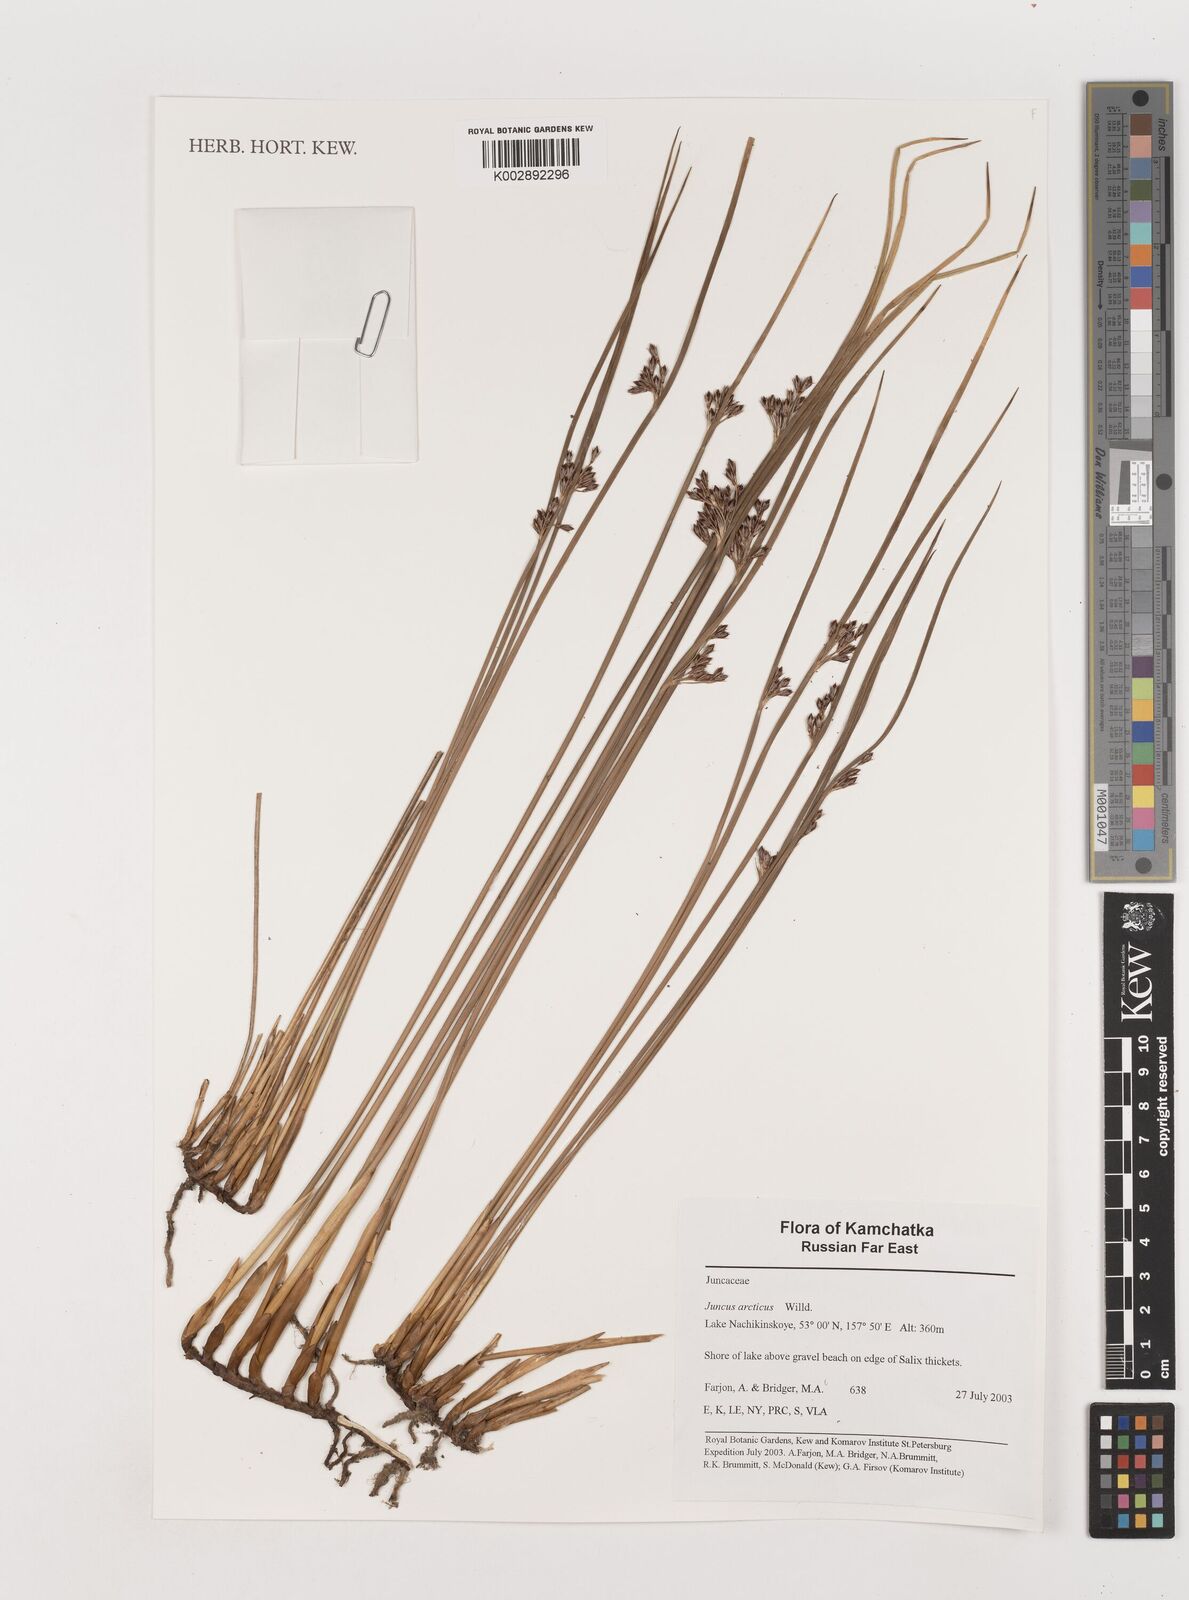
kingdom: Plantae
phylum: Tracheophyta
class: Liliopsida
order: Poales
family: Juncaceae
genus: Juncus
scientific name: Juncus arcticus
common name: Arctic rush
